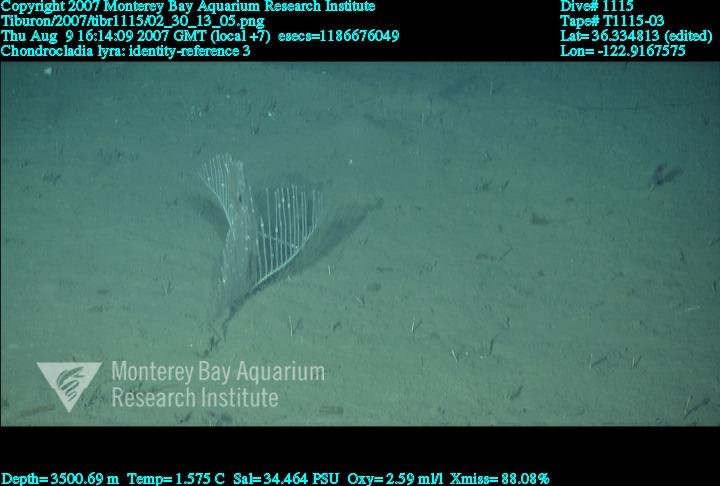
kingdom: Animalia
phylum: Porifera
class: Demospongiae
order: Poecilosclerida
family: Cladorhizidae
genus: Chondrocladia
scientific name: Chondrocladia lyra
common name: Harp sponge
